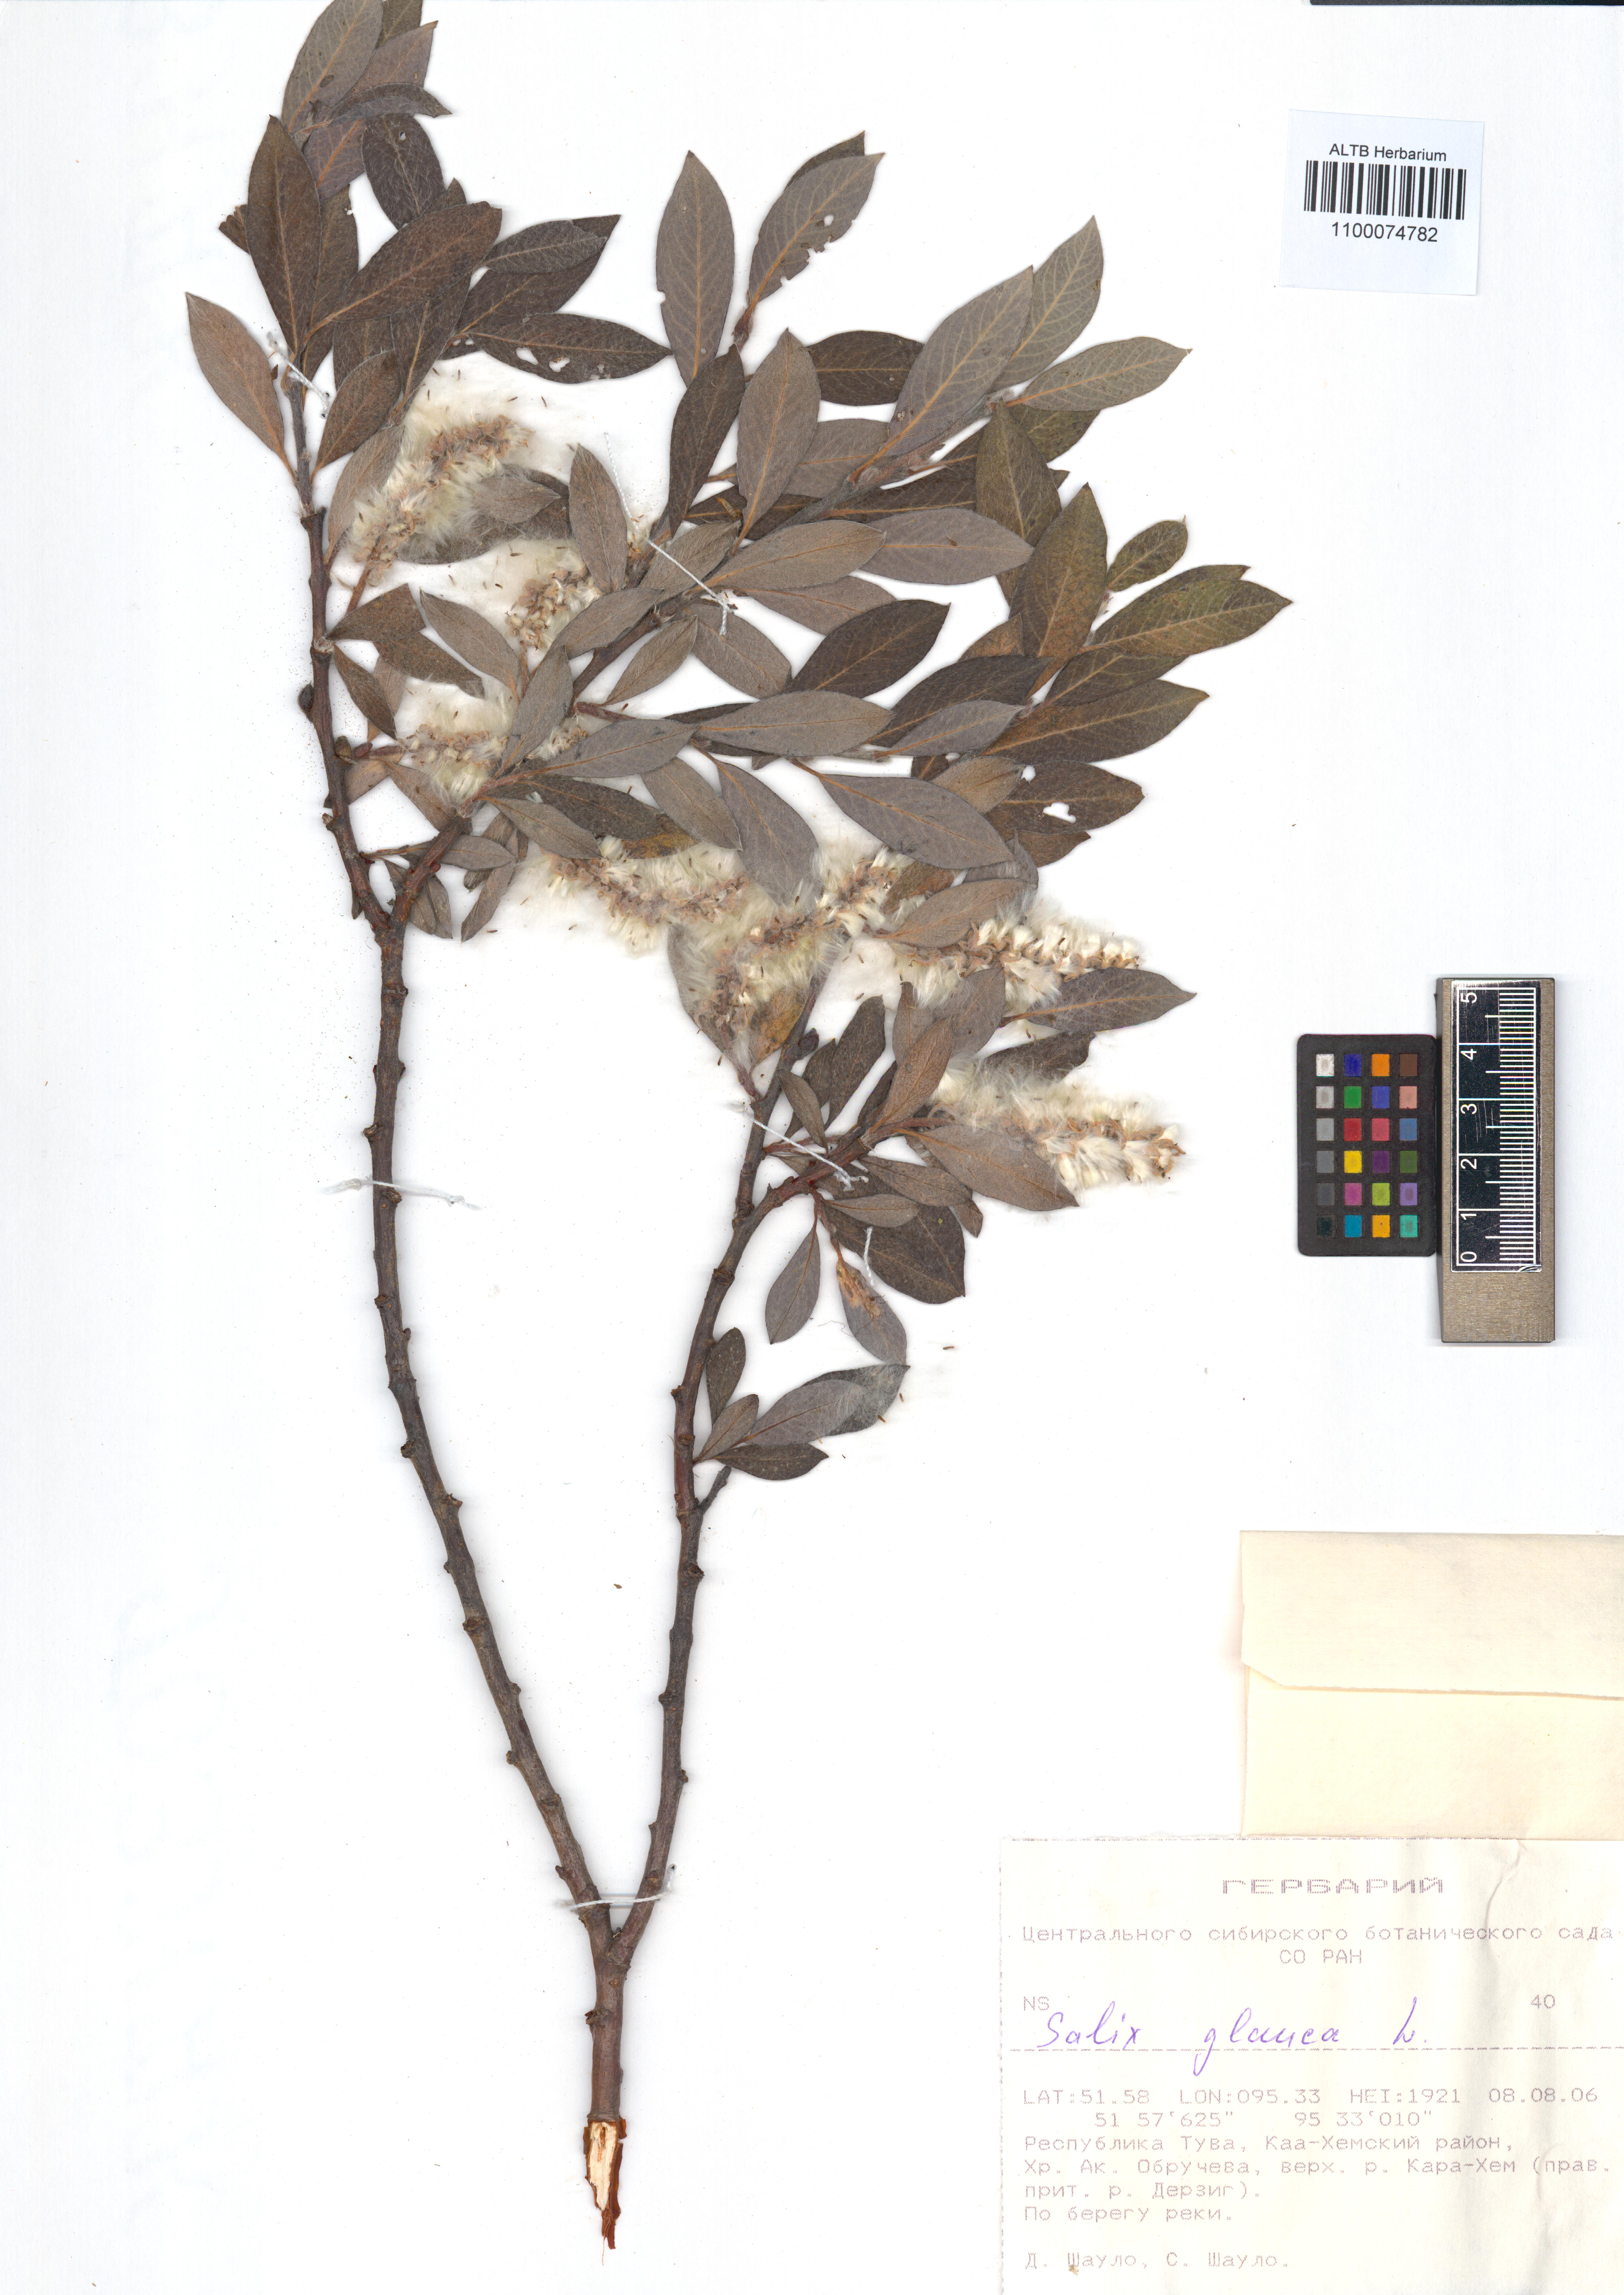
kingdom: Plantae
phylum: Tracheophyta
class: Magnoliopsida
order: Malpighiales
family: Salicaceae
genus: Salix
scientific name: Salix glauca
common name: Glaucous willow
